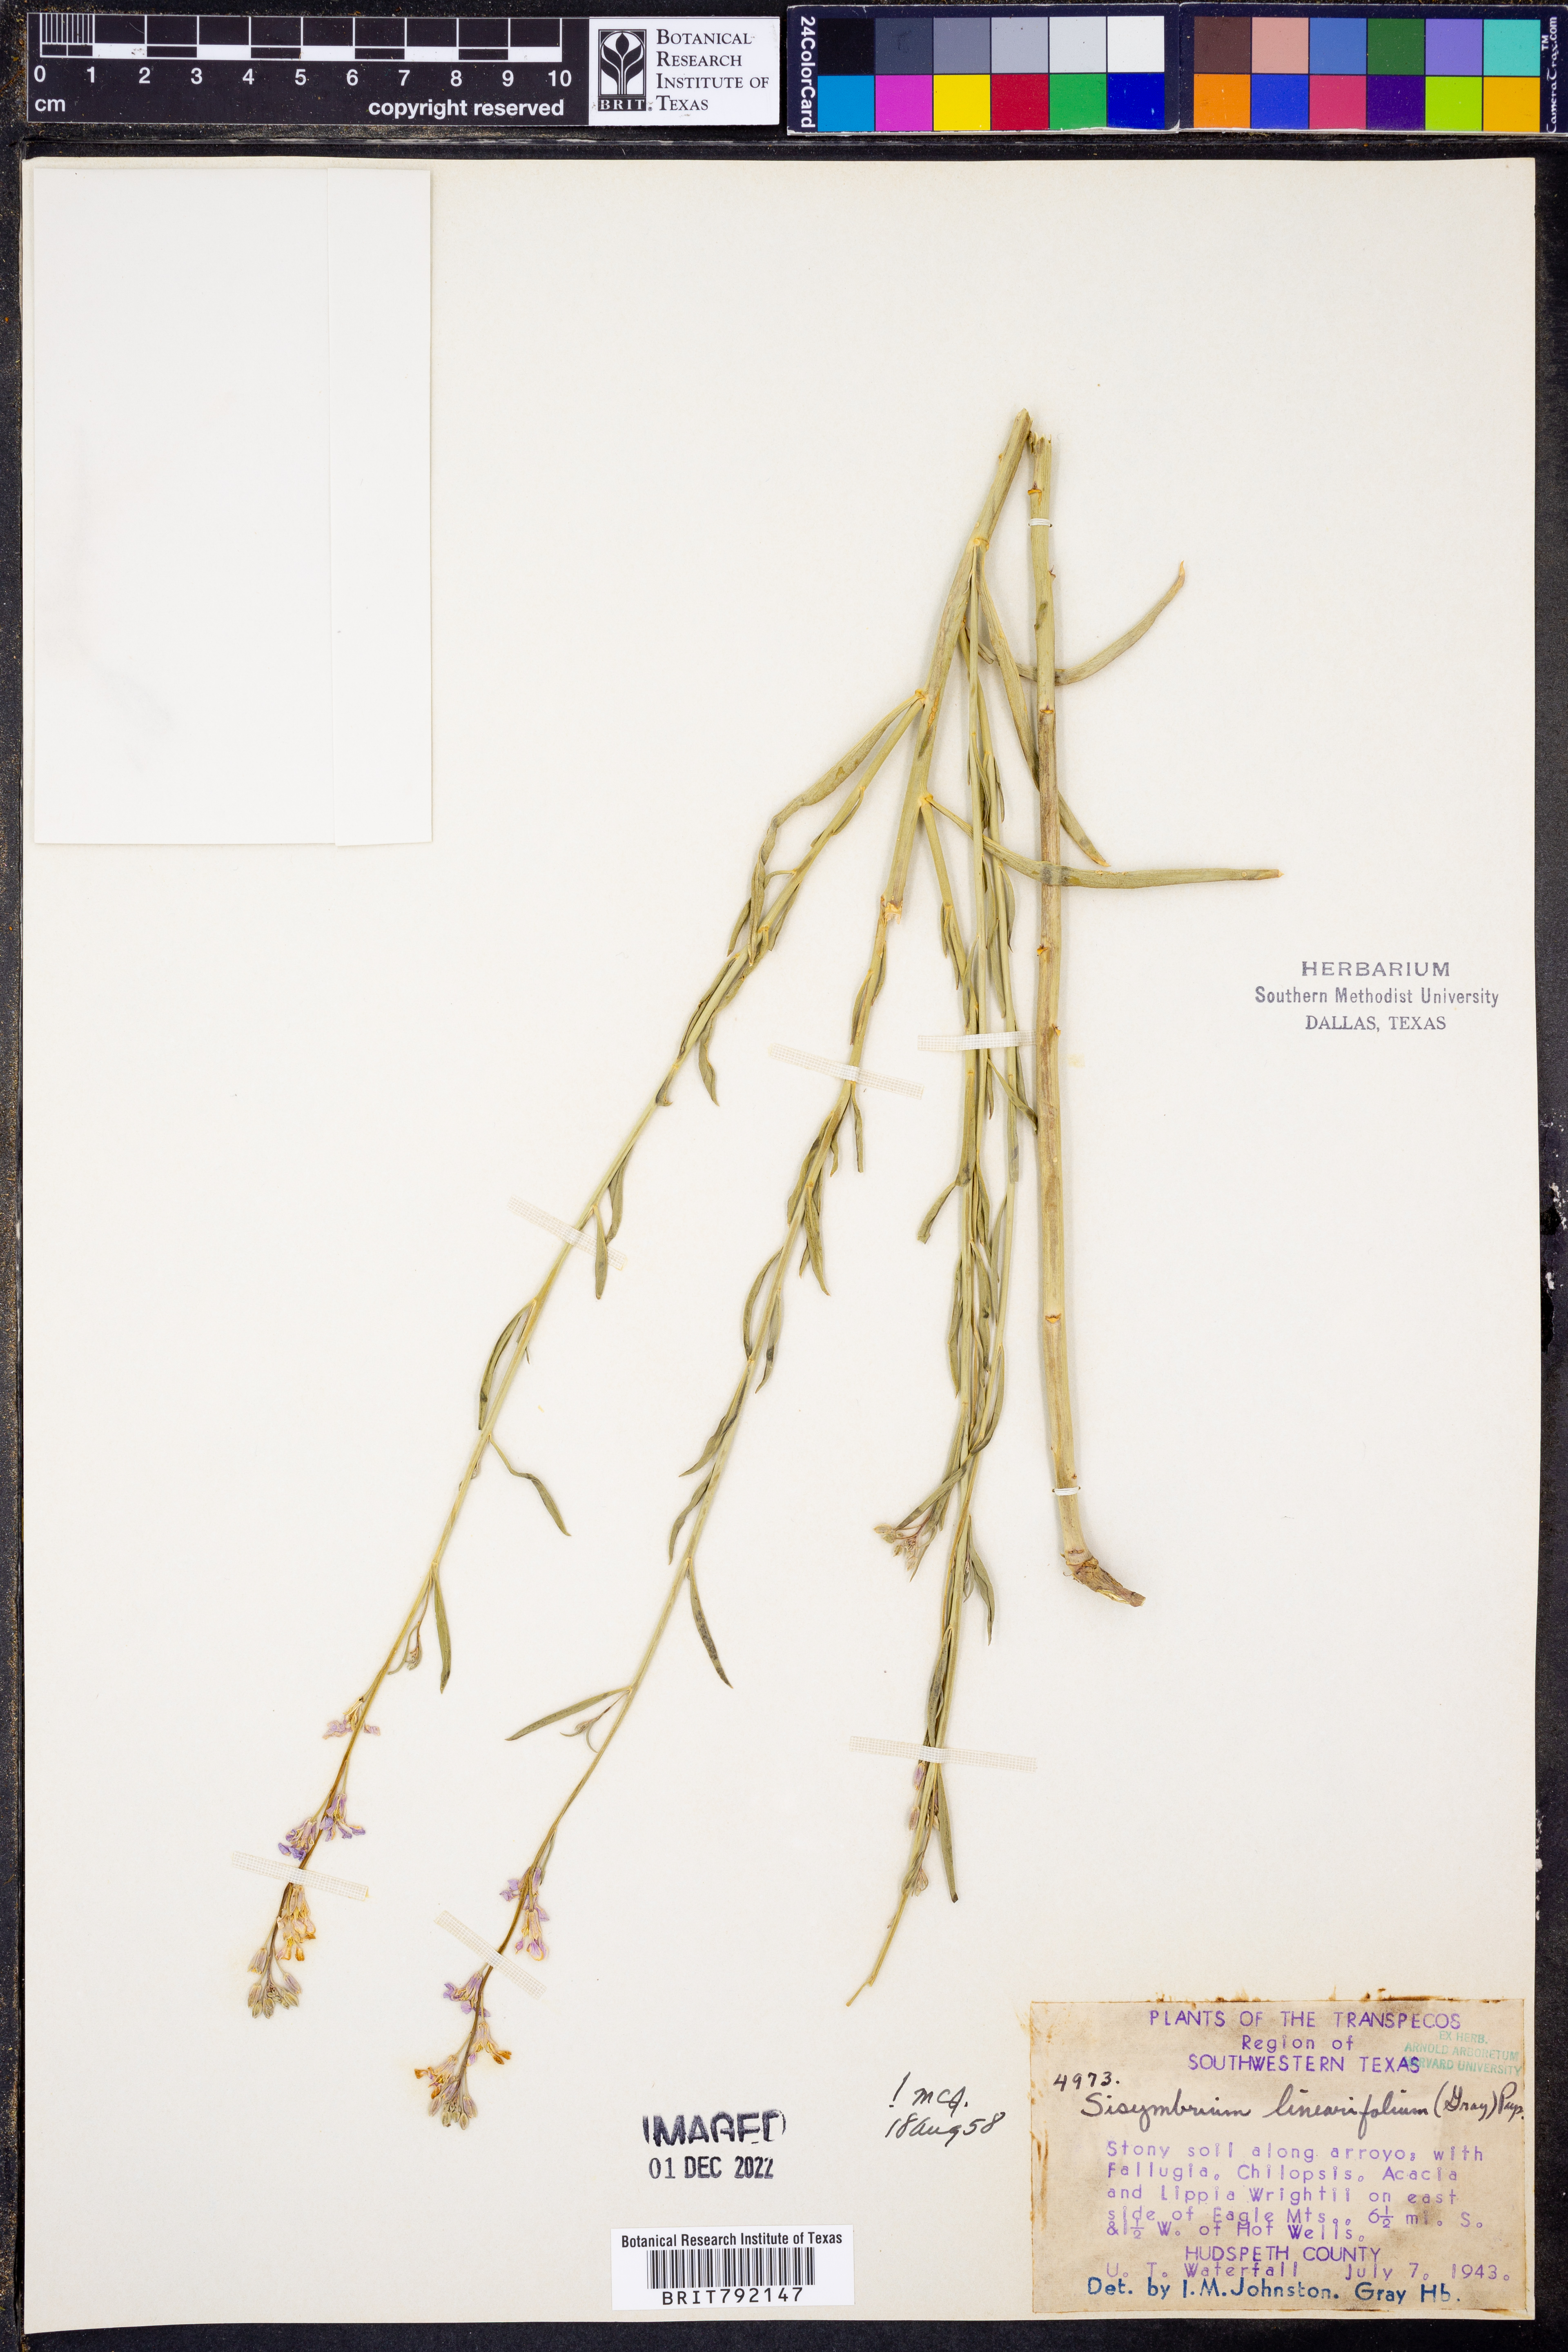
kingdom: Plantae
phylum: Tracheophyta
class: Magnoliopsida
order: Brassicales
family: Brassicaceae
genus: Hesperidanthus
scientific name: Hesperidanthus linearifolius
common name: Slim-leaf plains mustard
